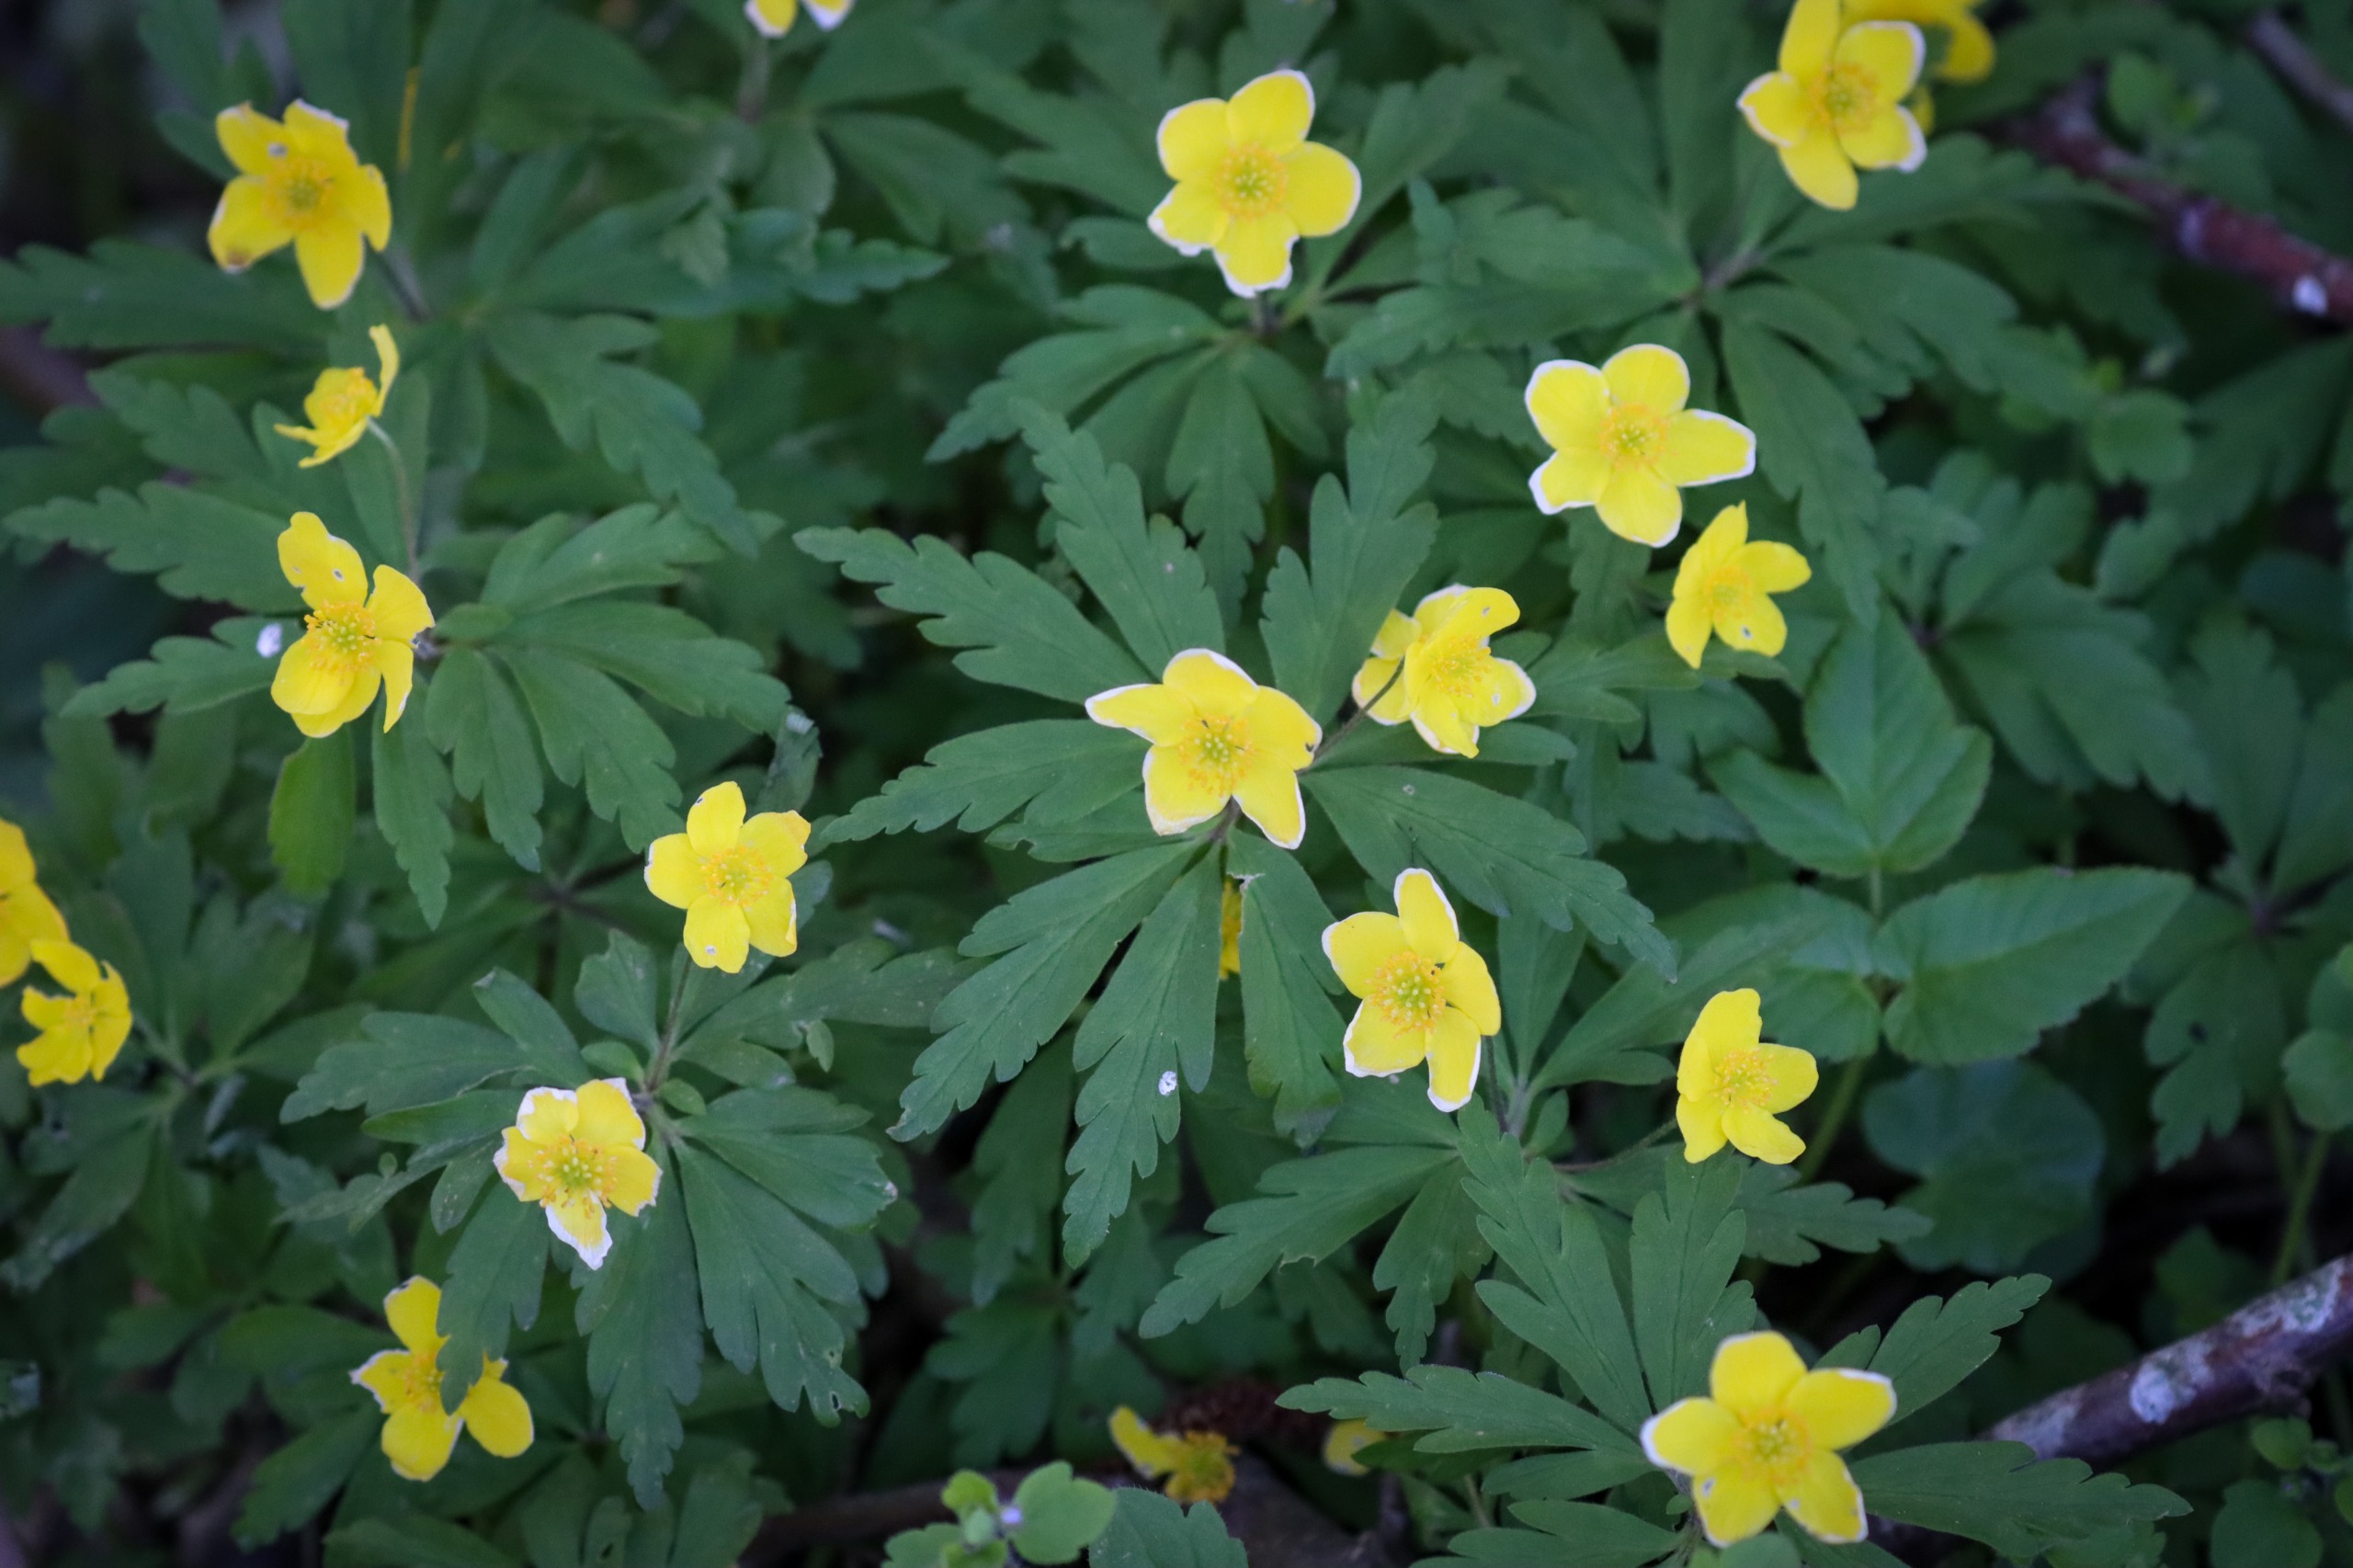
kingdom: Plantae
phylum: Tracheophyta
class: Magnoliopsida
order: Ranunculales
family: Ranunculaceae
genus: Anemone
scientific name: Anemone ranunculoides
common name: Gul anemone
